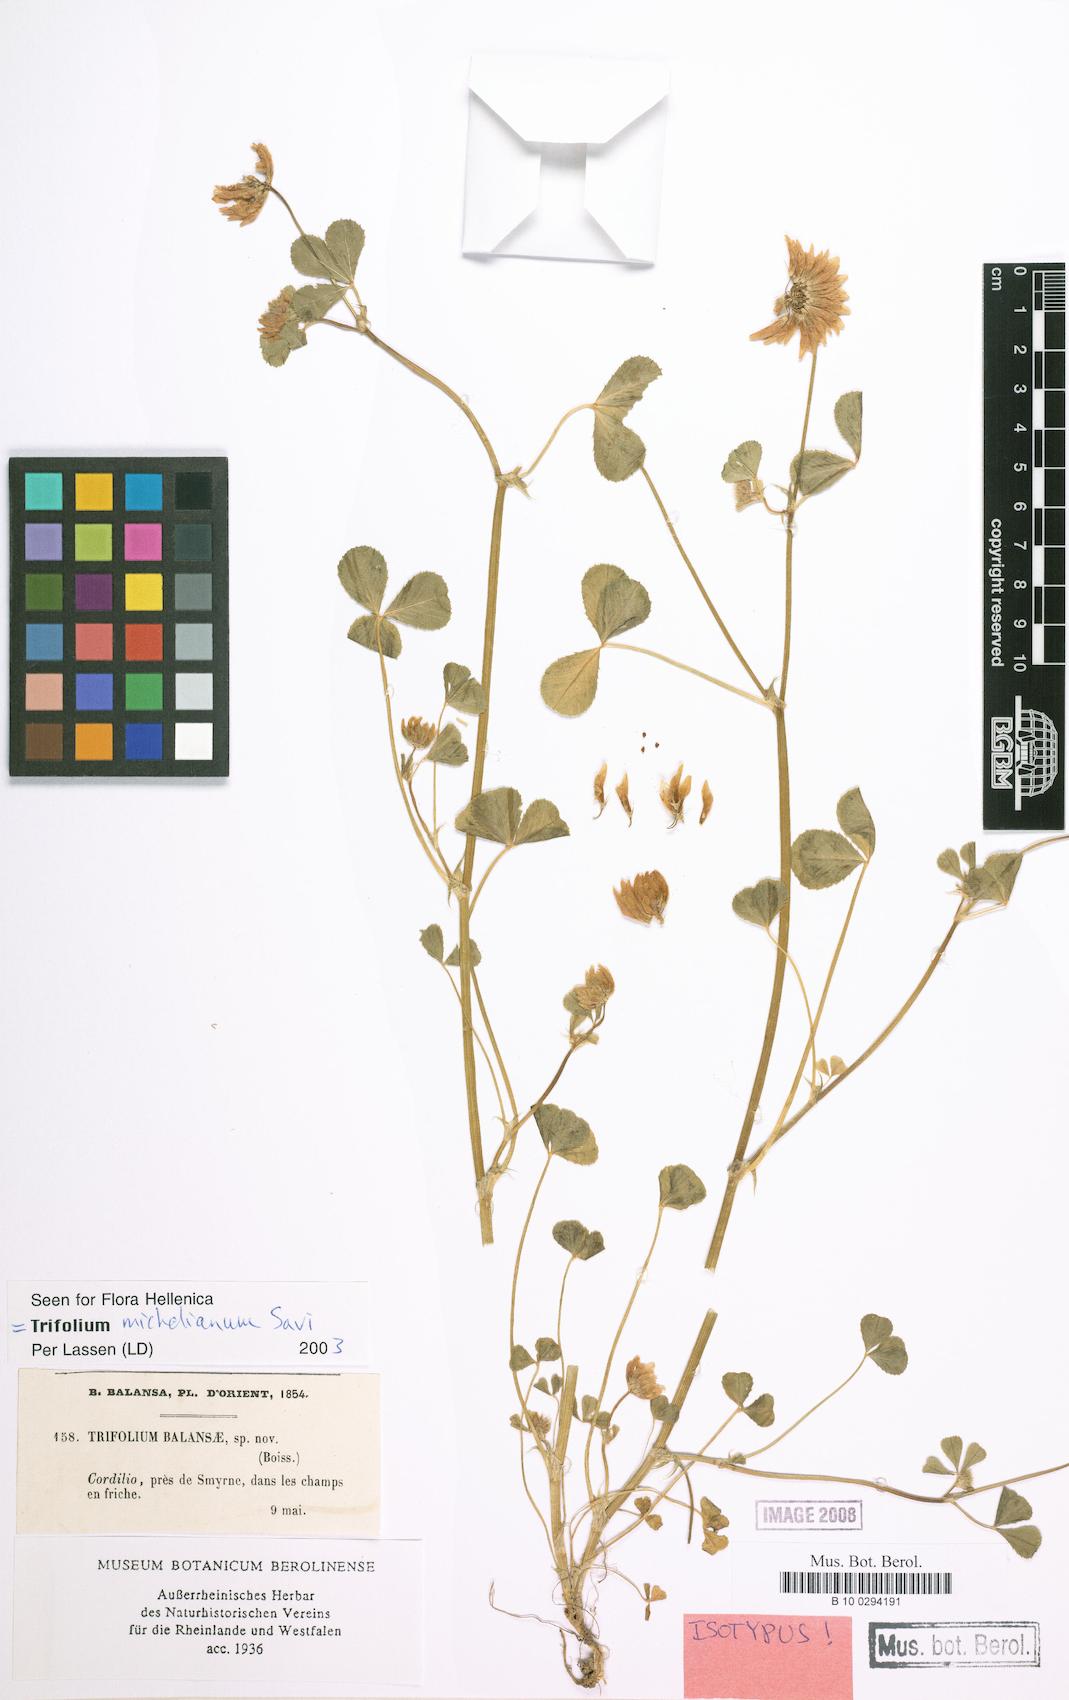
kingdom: Plantae
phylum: Tracheophyta
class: Magnoliopsida
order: Fabales
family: Fabaceae
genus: Trifolium
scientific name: Trifolium michelianum
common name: Bigflower clover
